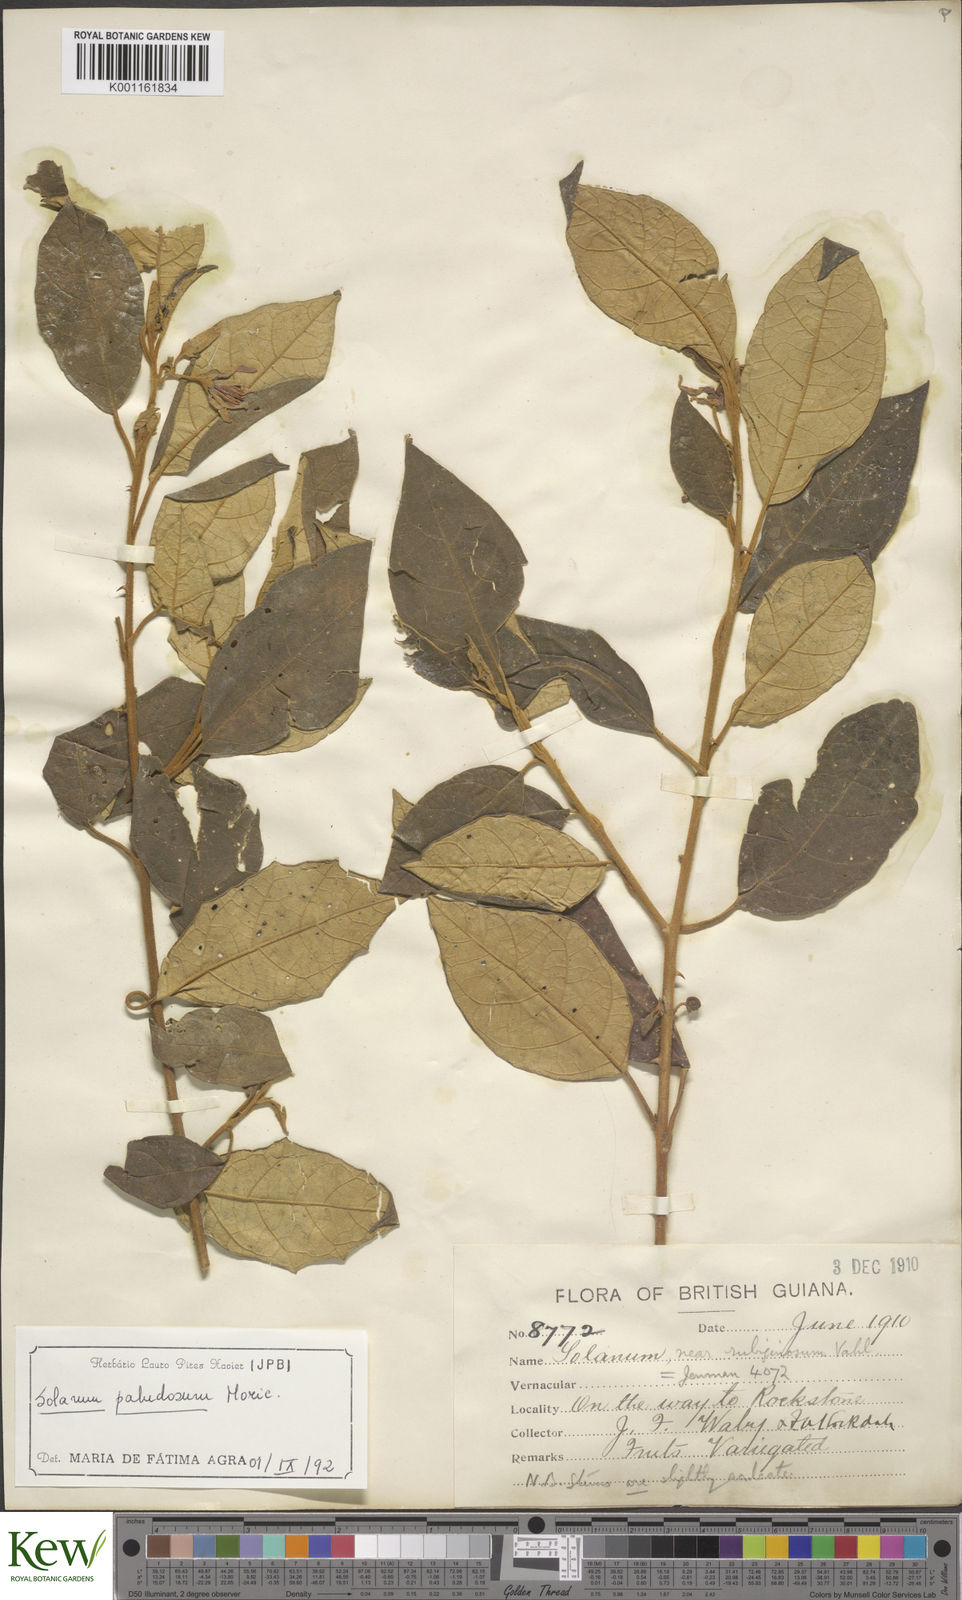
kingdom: Plantae
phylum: Tracheophyta
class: Magnoliopsida
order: Solanales
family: Solanaceae
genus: Solanum
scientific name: Solanum paludosum
